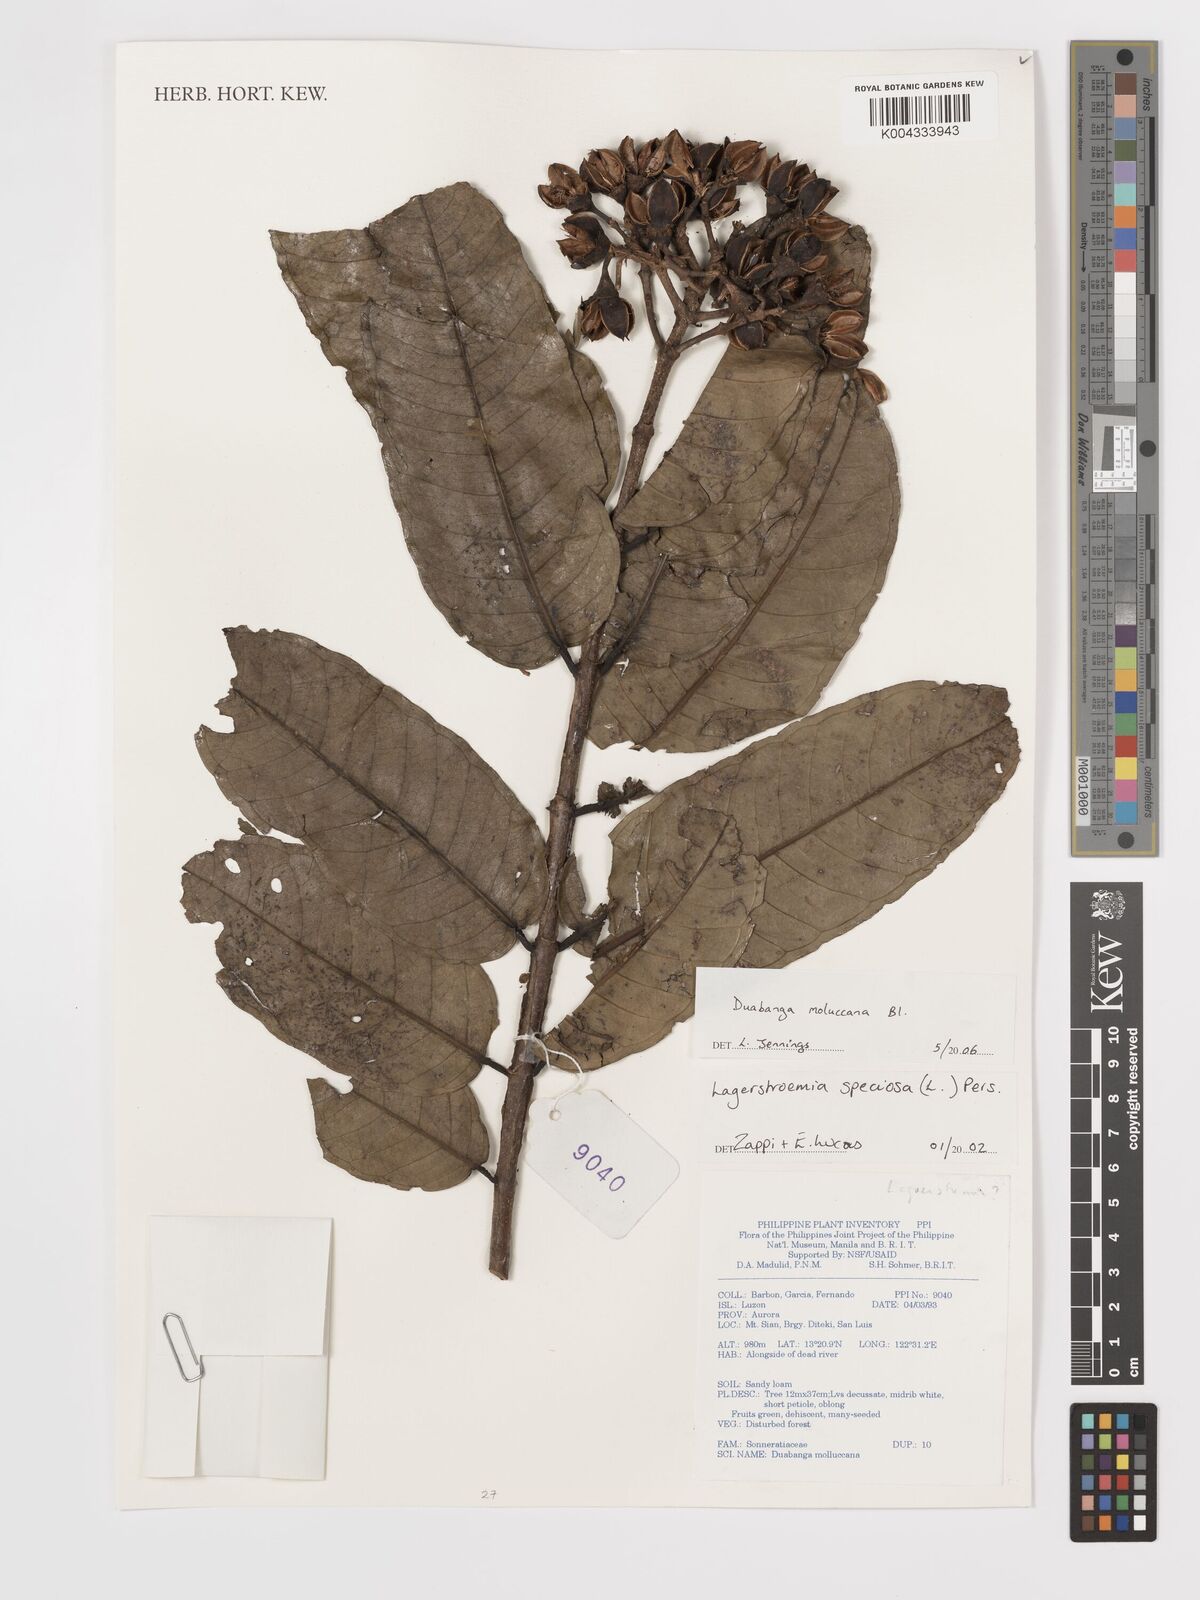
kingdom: Plantae
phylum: Tracheophyta
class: Magnoliopsida
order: Myrtales
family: Lythraceae
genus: Duabanga
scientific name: Duabanga moluccana
